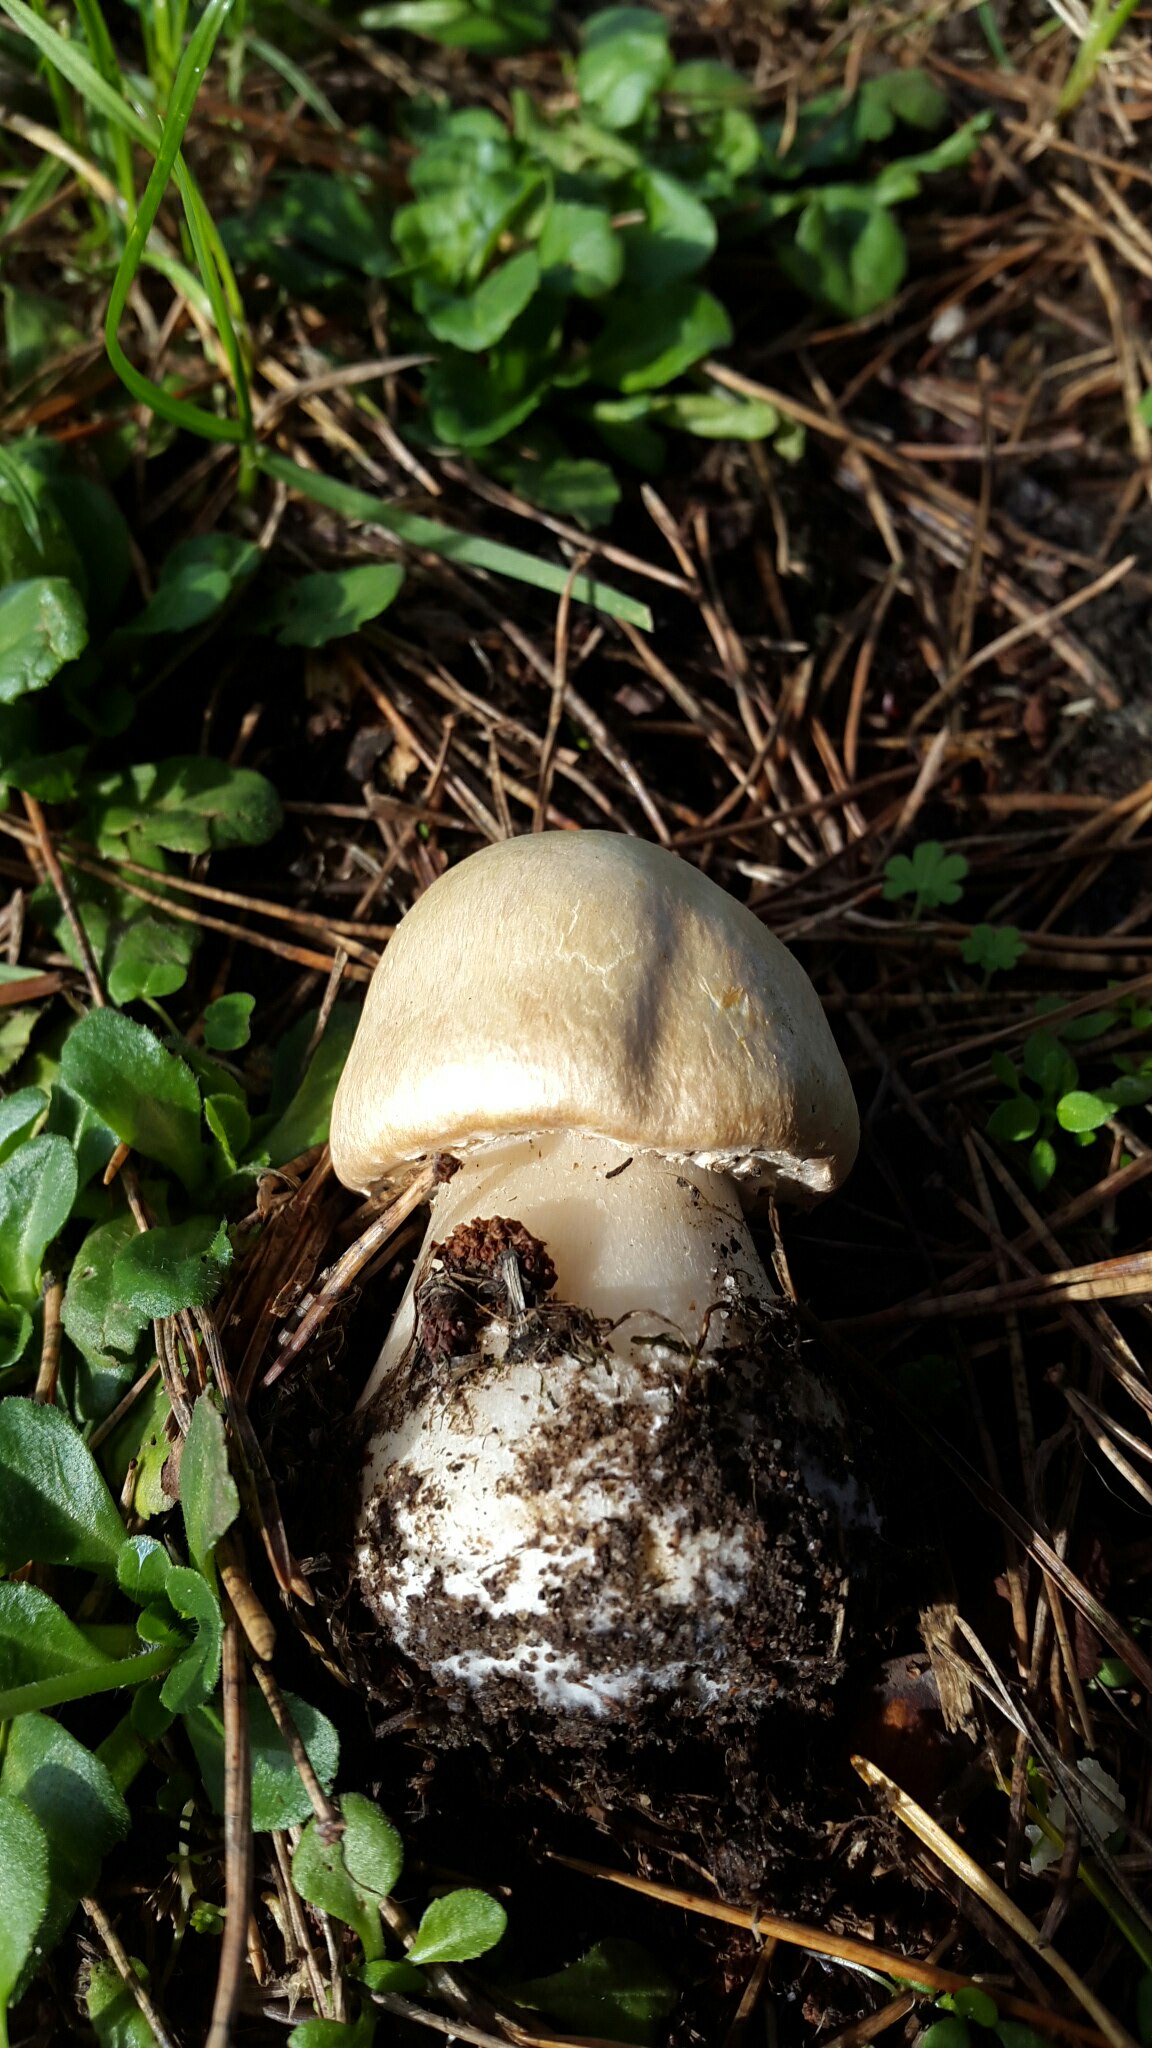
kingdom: Fungi
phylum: Basidiomycota
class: Agaricomycetes
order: Agaricales
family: Agaricaceae
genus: Agaricus
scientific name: Agaricus
